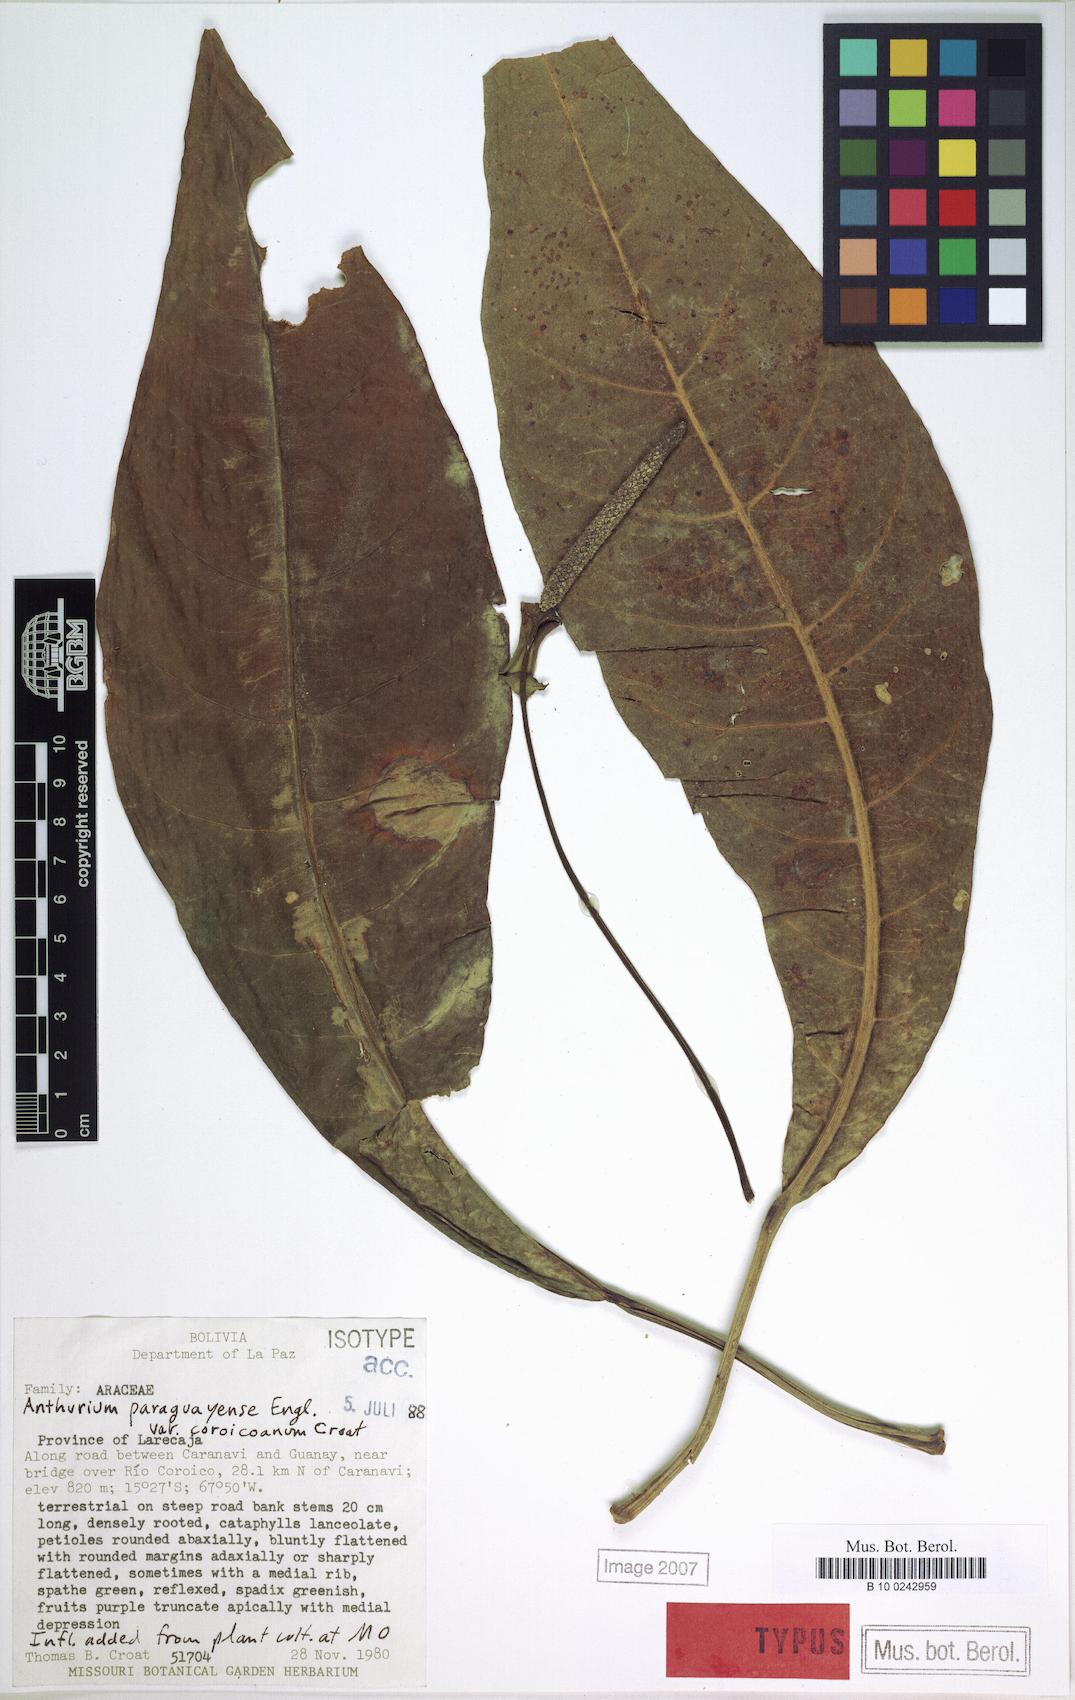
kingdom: Plantae
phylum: Tracheophyta
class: Liliopsida
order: Alismatales
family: Araceae
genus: Anthurium
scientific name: Anthurium paraguayense
